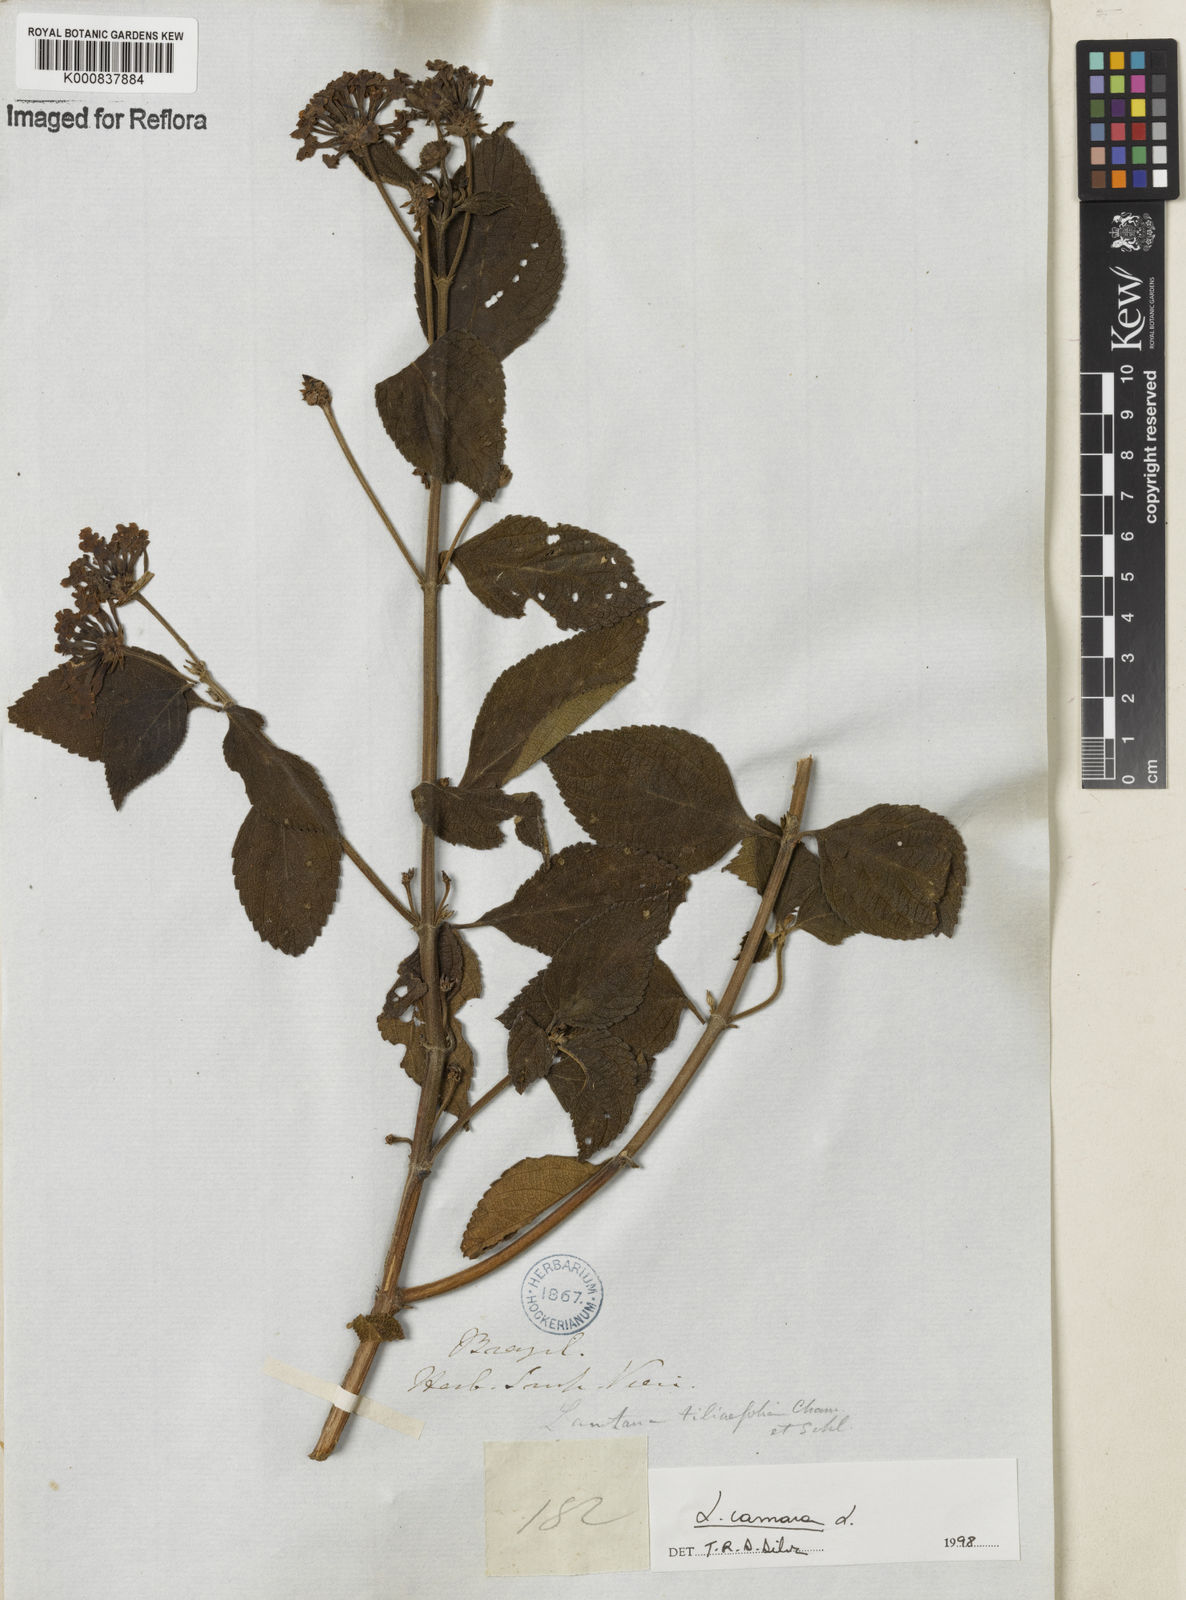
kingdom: Plantae
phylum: Tracheophyta
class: Magnoliopsida
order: Lamiales
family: Verbenaceae
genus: Lantana
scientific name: Lantana camara
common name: Lantana
